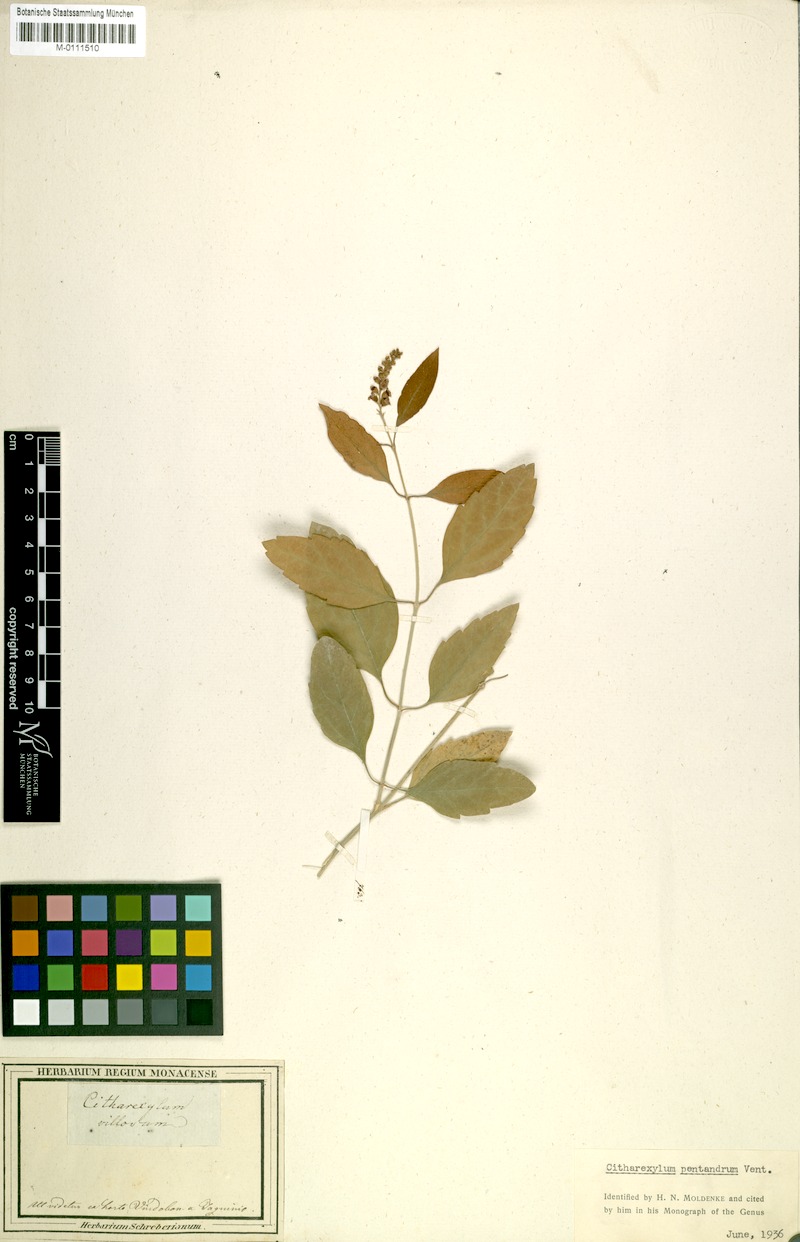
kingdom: Plantae
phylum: Tracheophyta
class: Magnoliopsida
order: Lamiales
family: Verbenaceae
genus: Citharexylum
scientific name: Citharexylum spinosum
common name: Fiddlewood
